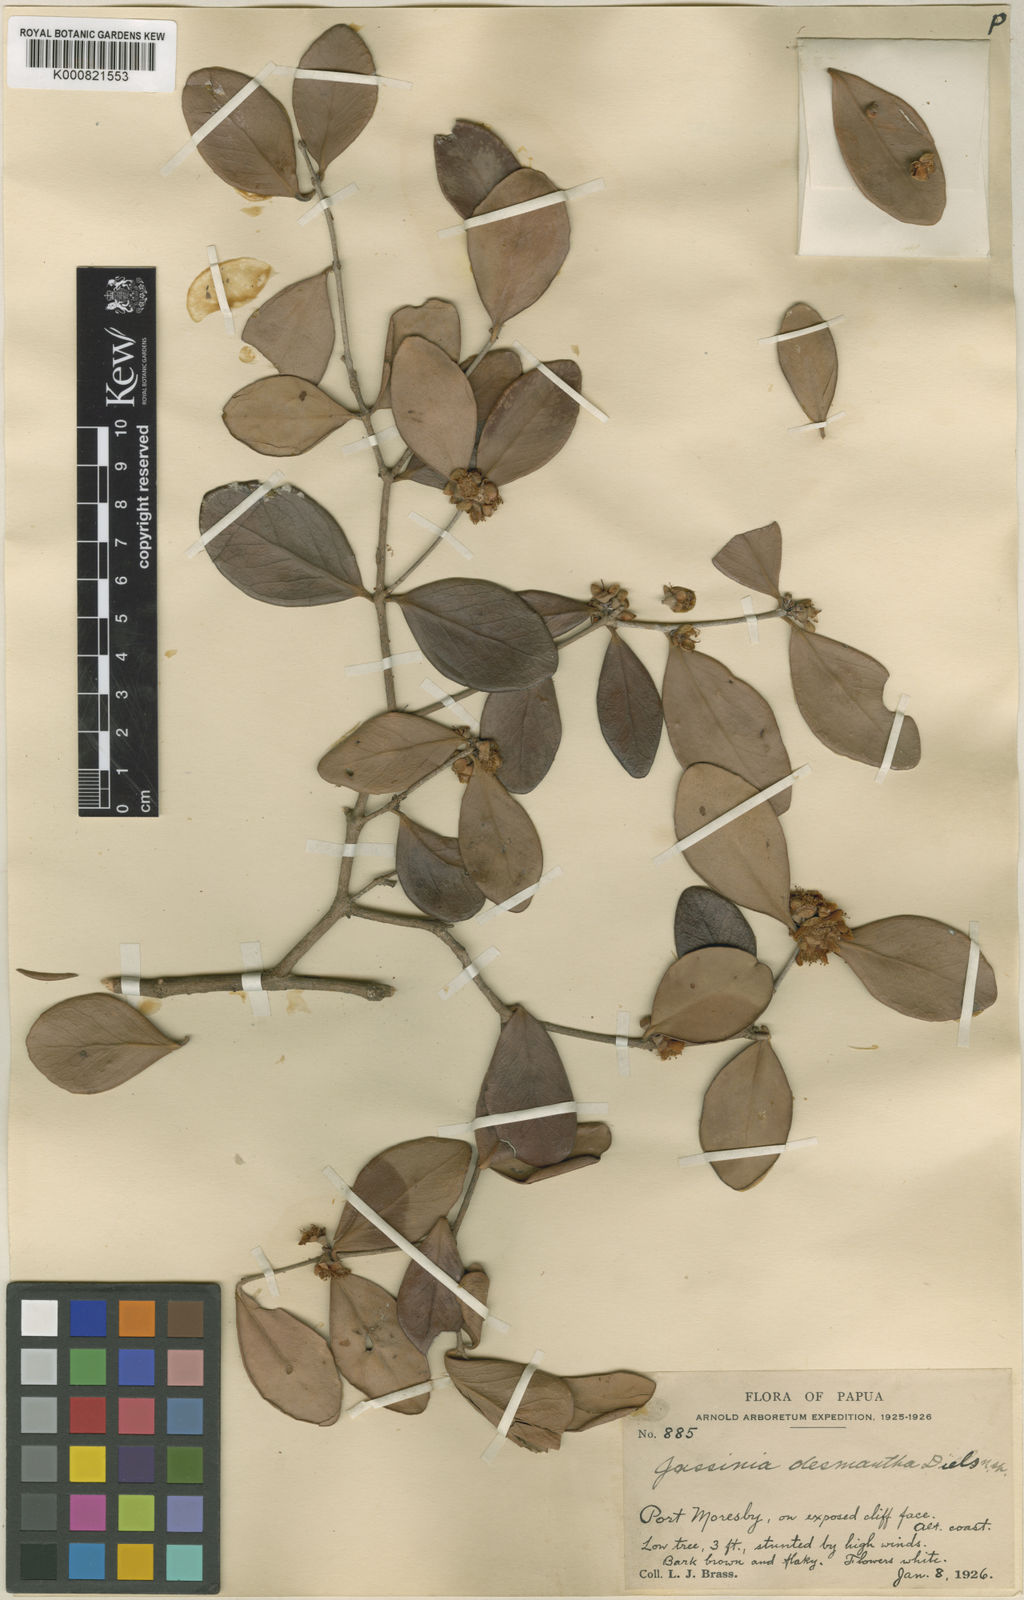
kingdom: Plantae
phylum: Tracheophyta
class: Magnoliopsida
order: Myrtales
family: Myrtaceae
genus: Eugenia
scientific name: Eugenia reinwardtiana
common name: Cedar bay-cherry
